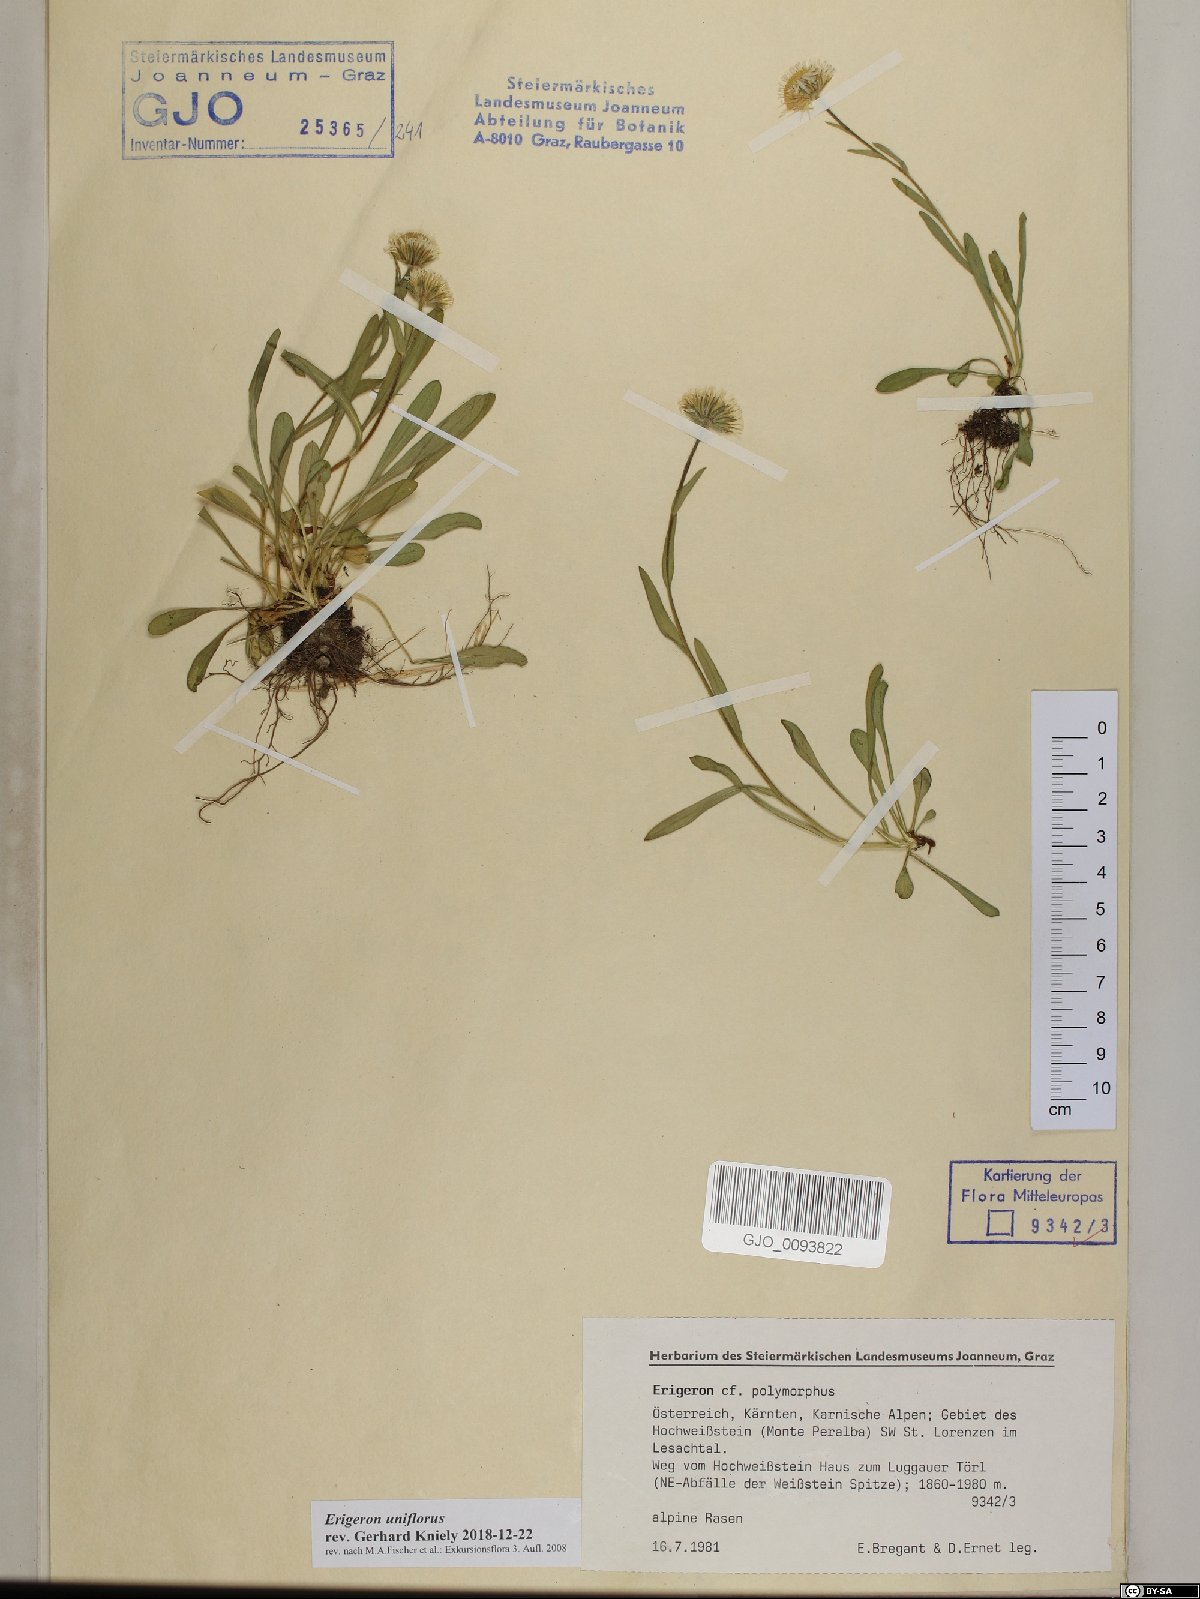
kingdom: Plantae
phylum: Tracheophyta
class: Magnoliopsida
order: Asterales
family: Asteraceae
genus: Erigeron
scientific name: Erigeron uniflorus
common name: Northern daisy
